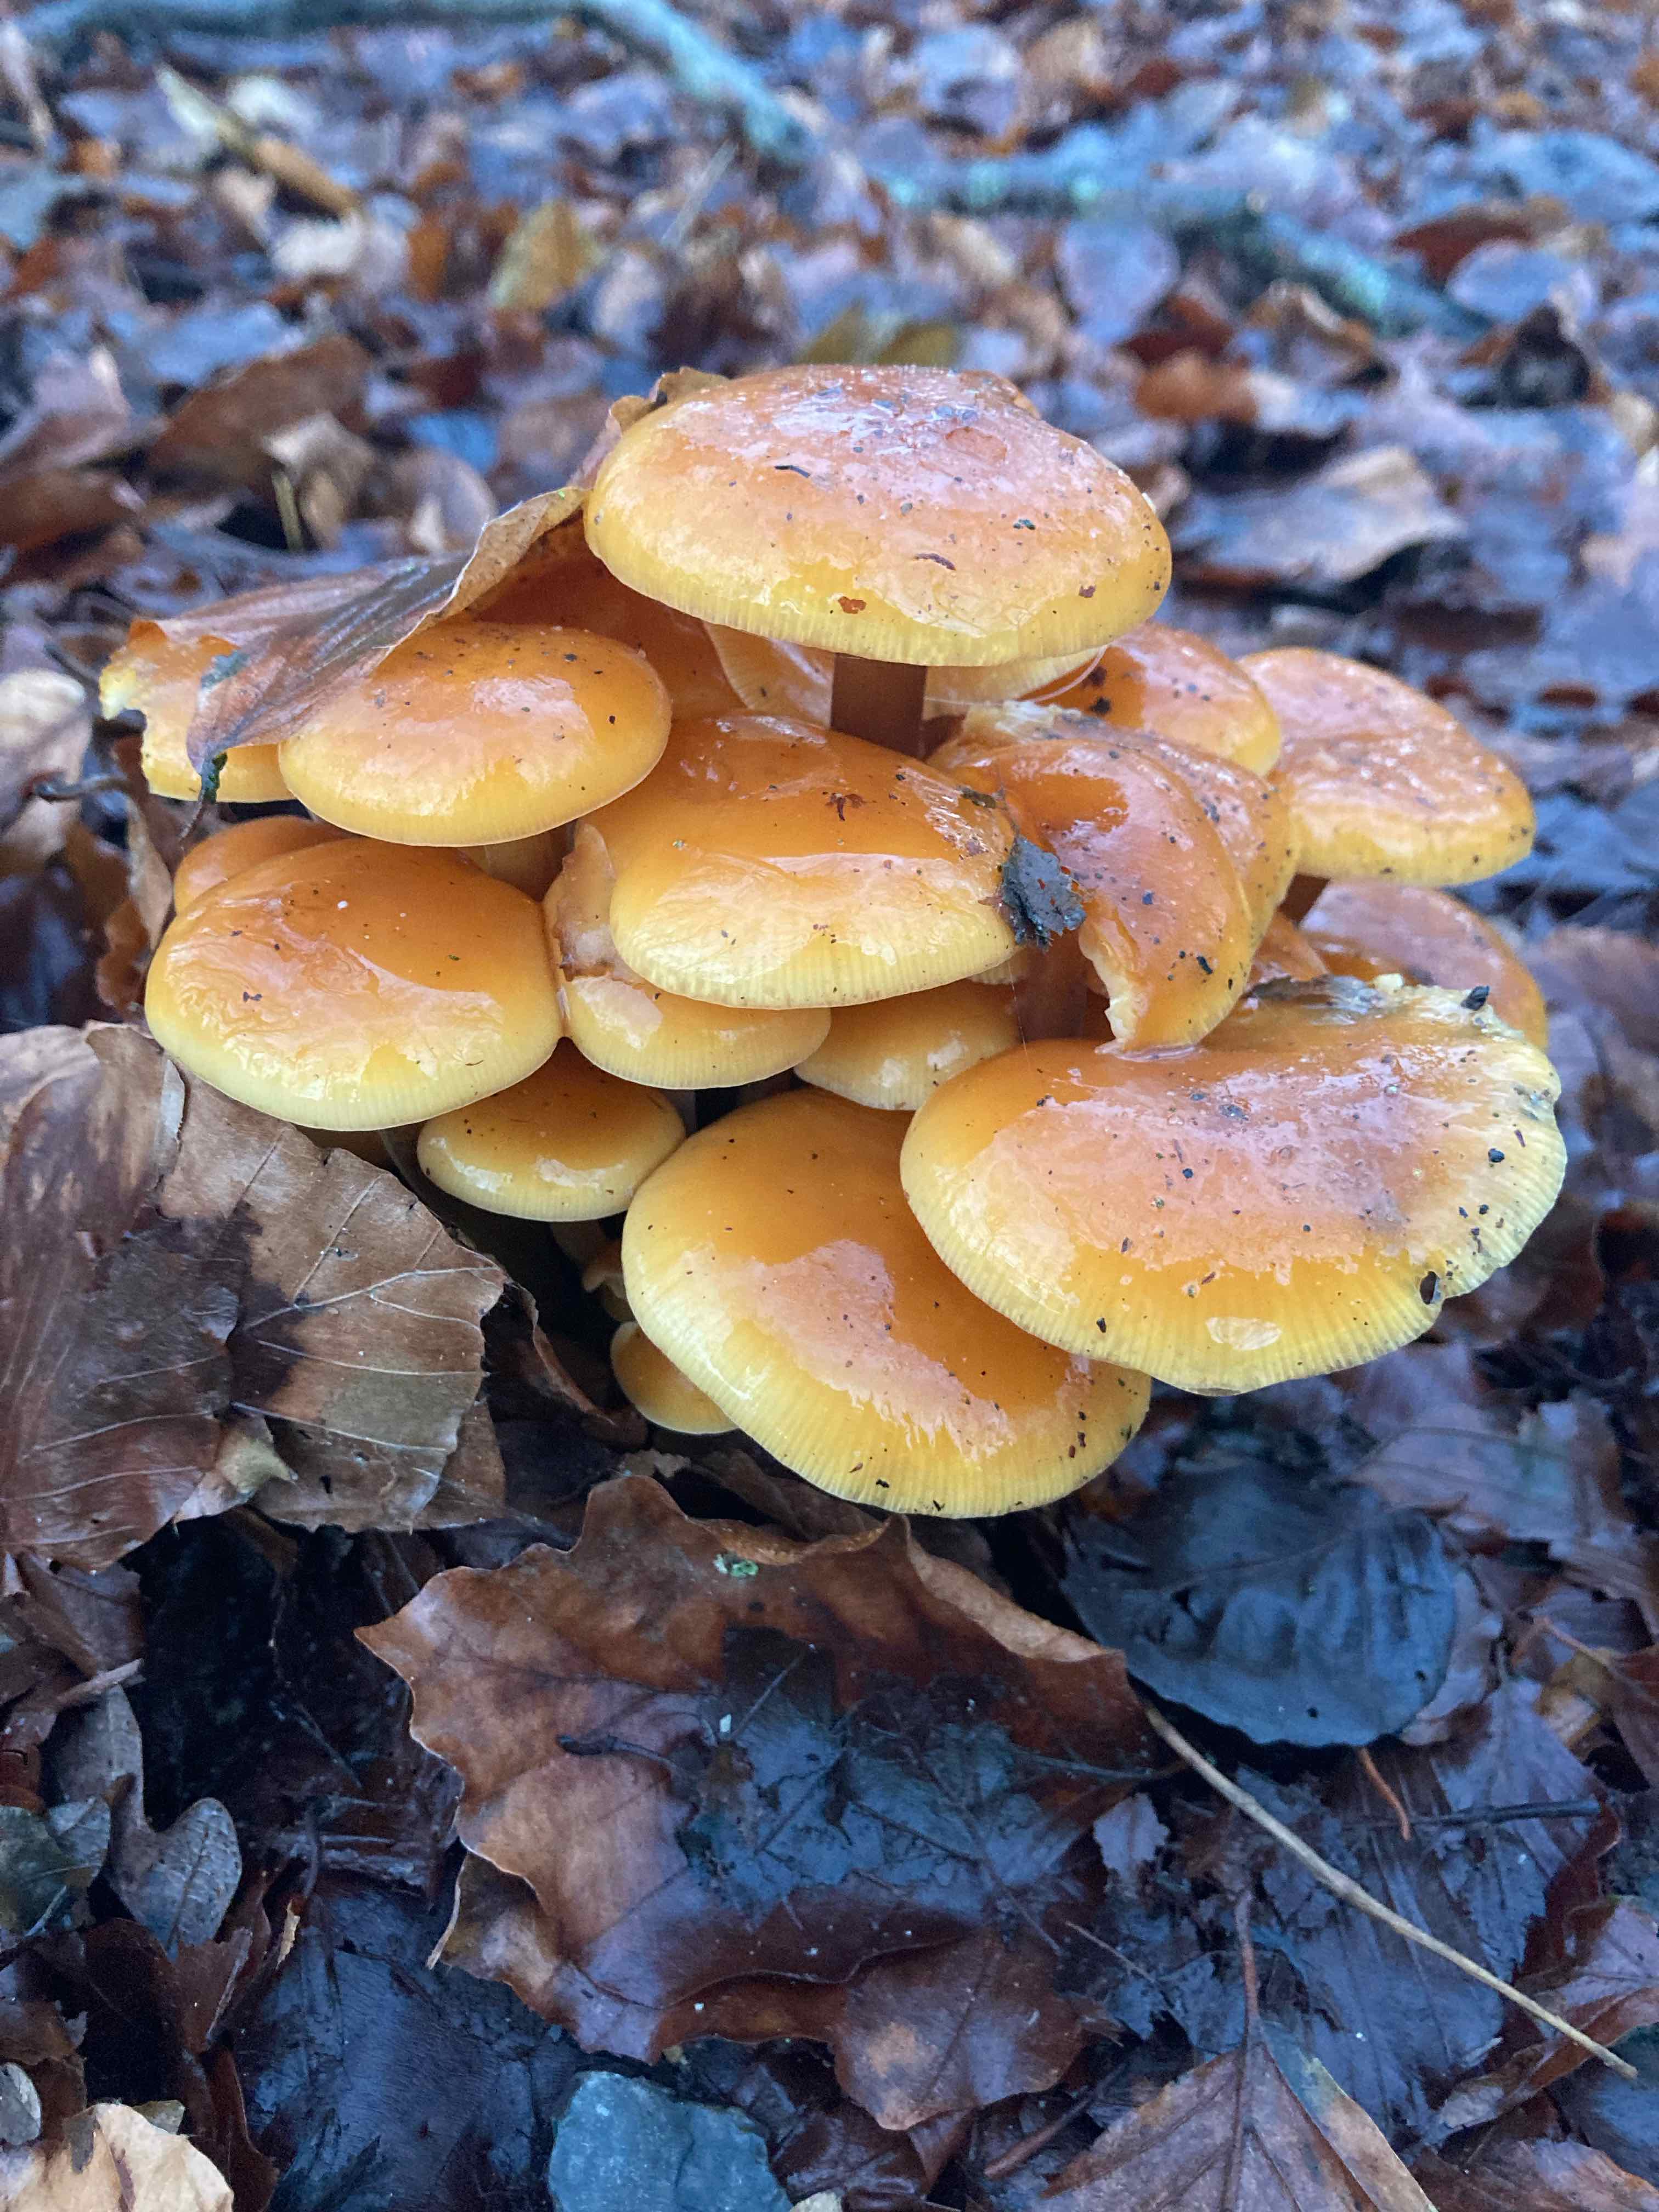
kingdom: Fungi
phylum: Basidiomycota
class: Agaricomycetes
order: Agaricales
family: Physalacriaceae
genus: Flammulina
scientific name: Flammulina velutipes
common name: gul fløjlsfod
